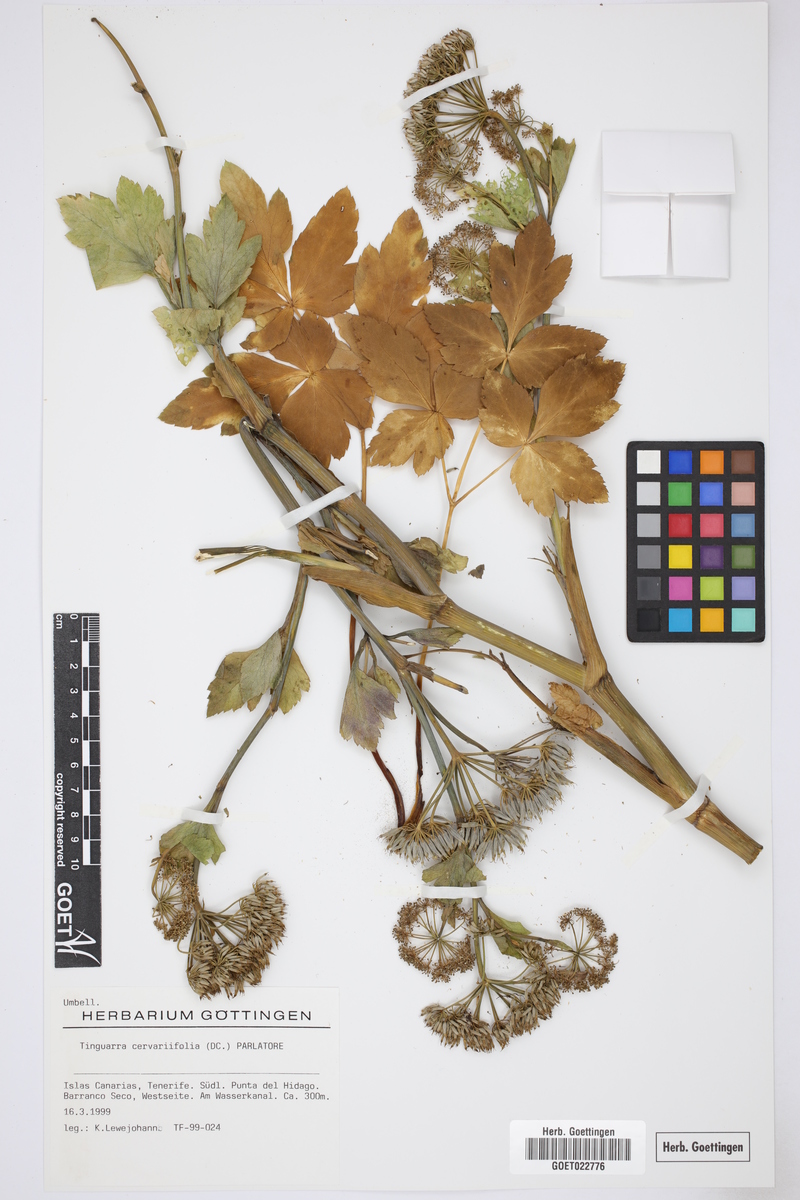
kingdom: Plantae
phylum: Tracheophyta
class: Magnoliopsida
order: Apiales
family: Apiaceae
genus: Athamanta
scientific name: Athamanta cervariifolia
